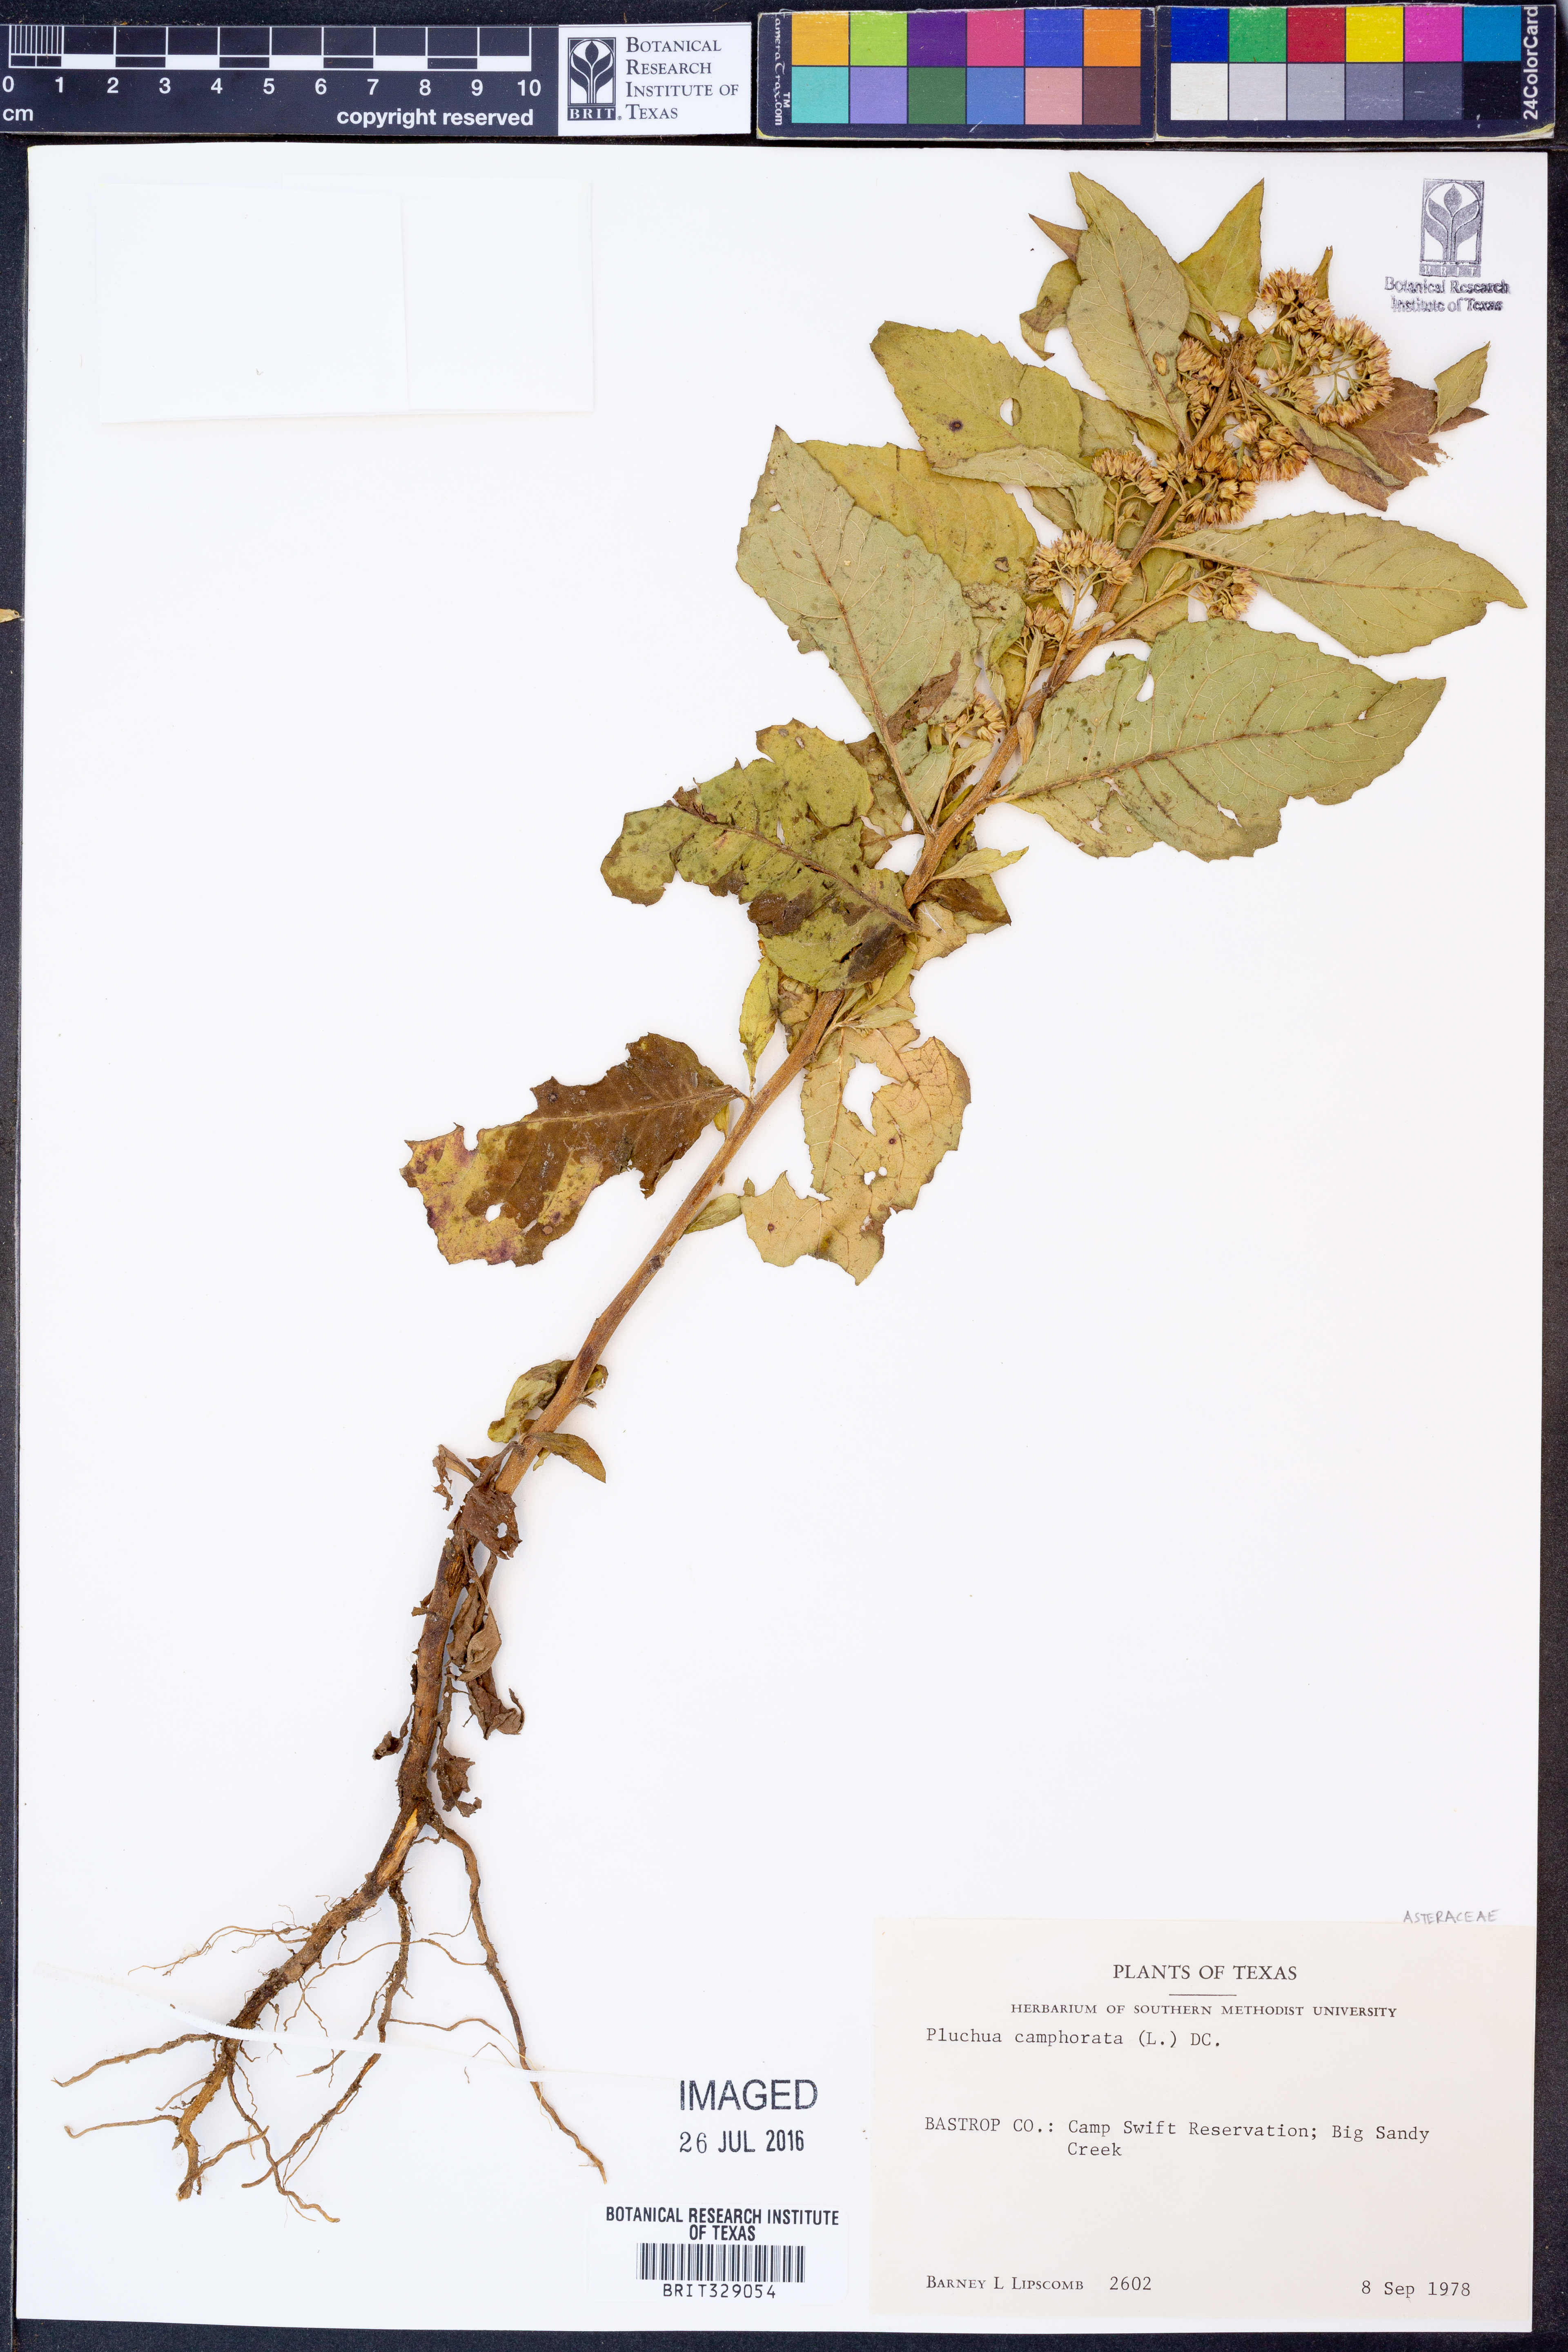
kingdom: Plantae
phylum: Tracheophyta
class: Magnoliopsida
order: Asterales
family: Asteraceae
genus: Pluchea
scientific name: Pluchea camphorata
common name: Camphor pluchea
